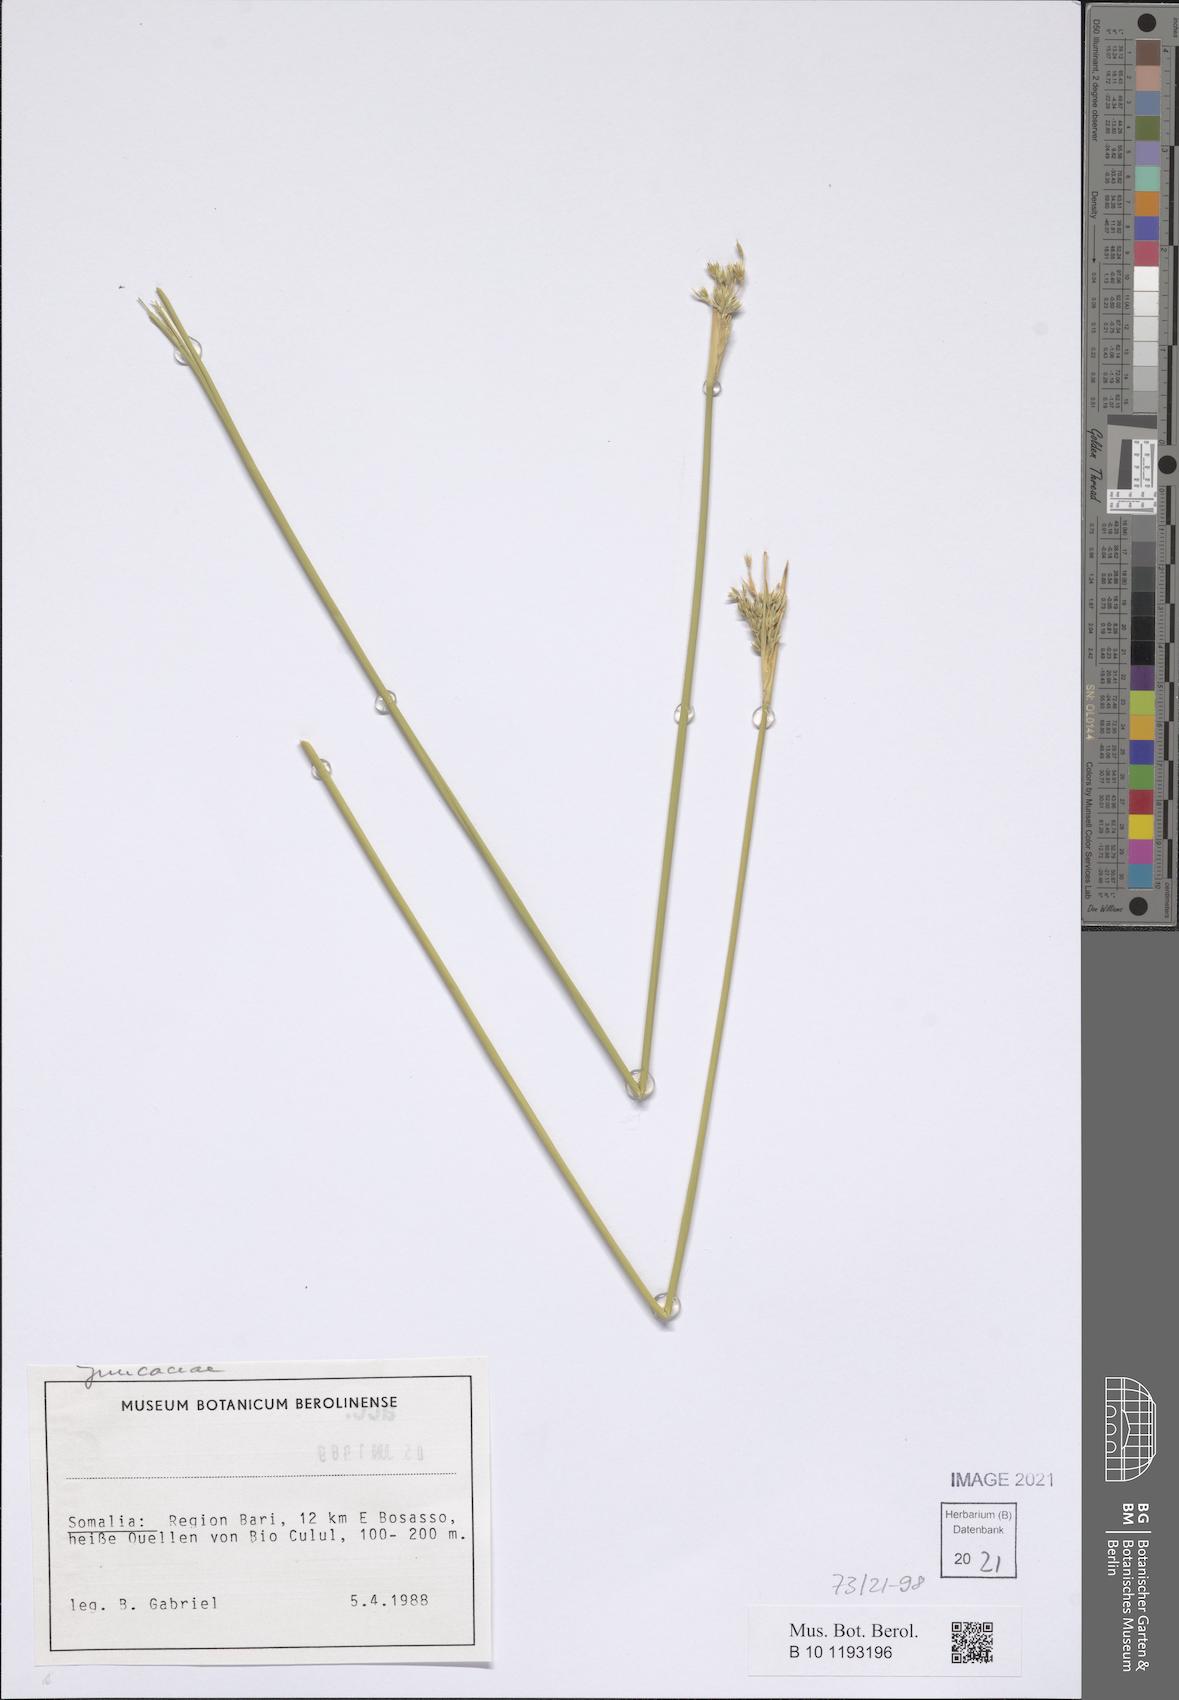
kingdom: Plantae
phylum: Tracheophyta
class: Liliopsida
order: Poales
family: Juncaceae
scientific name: Juncaceae
